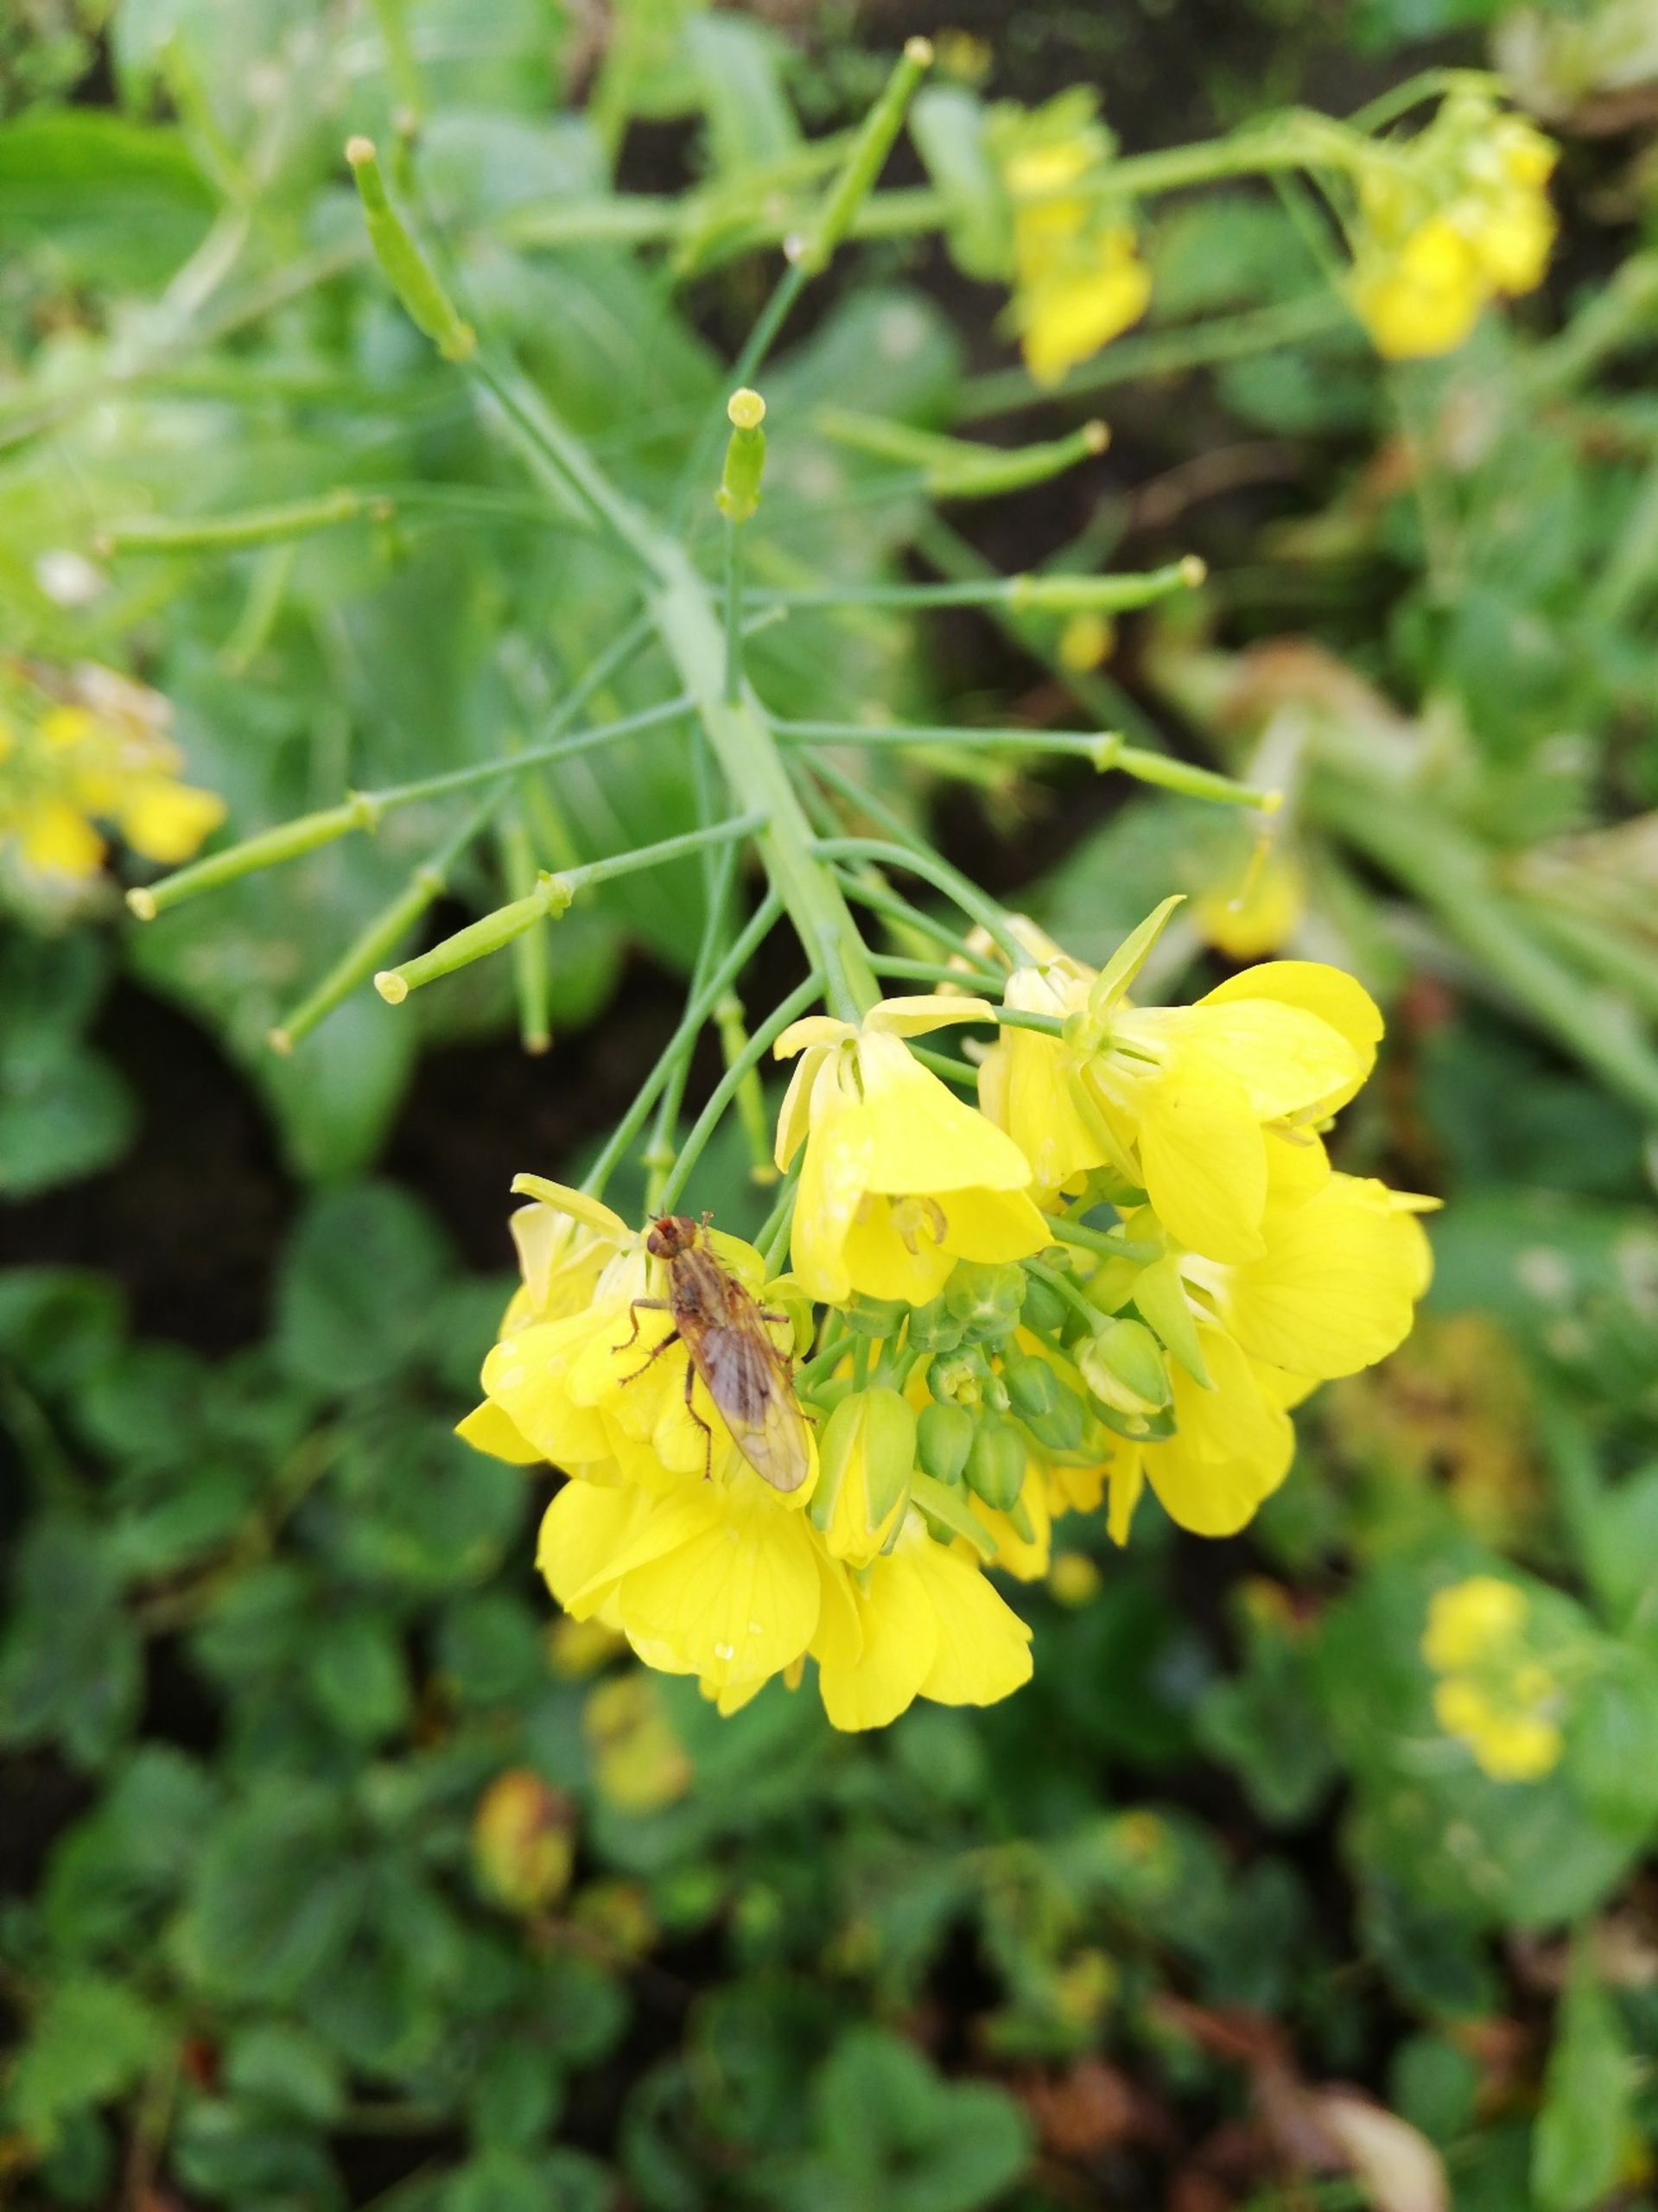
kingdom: Animalia
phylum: Arthropoda
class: Insecta
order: Diptera
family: Scathophagidae
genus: Scathophaga
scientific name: Scathophaga stercoraria
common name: Almindelig gødningsflue
